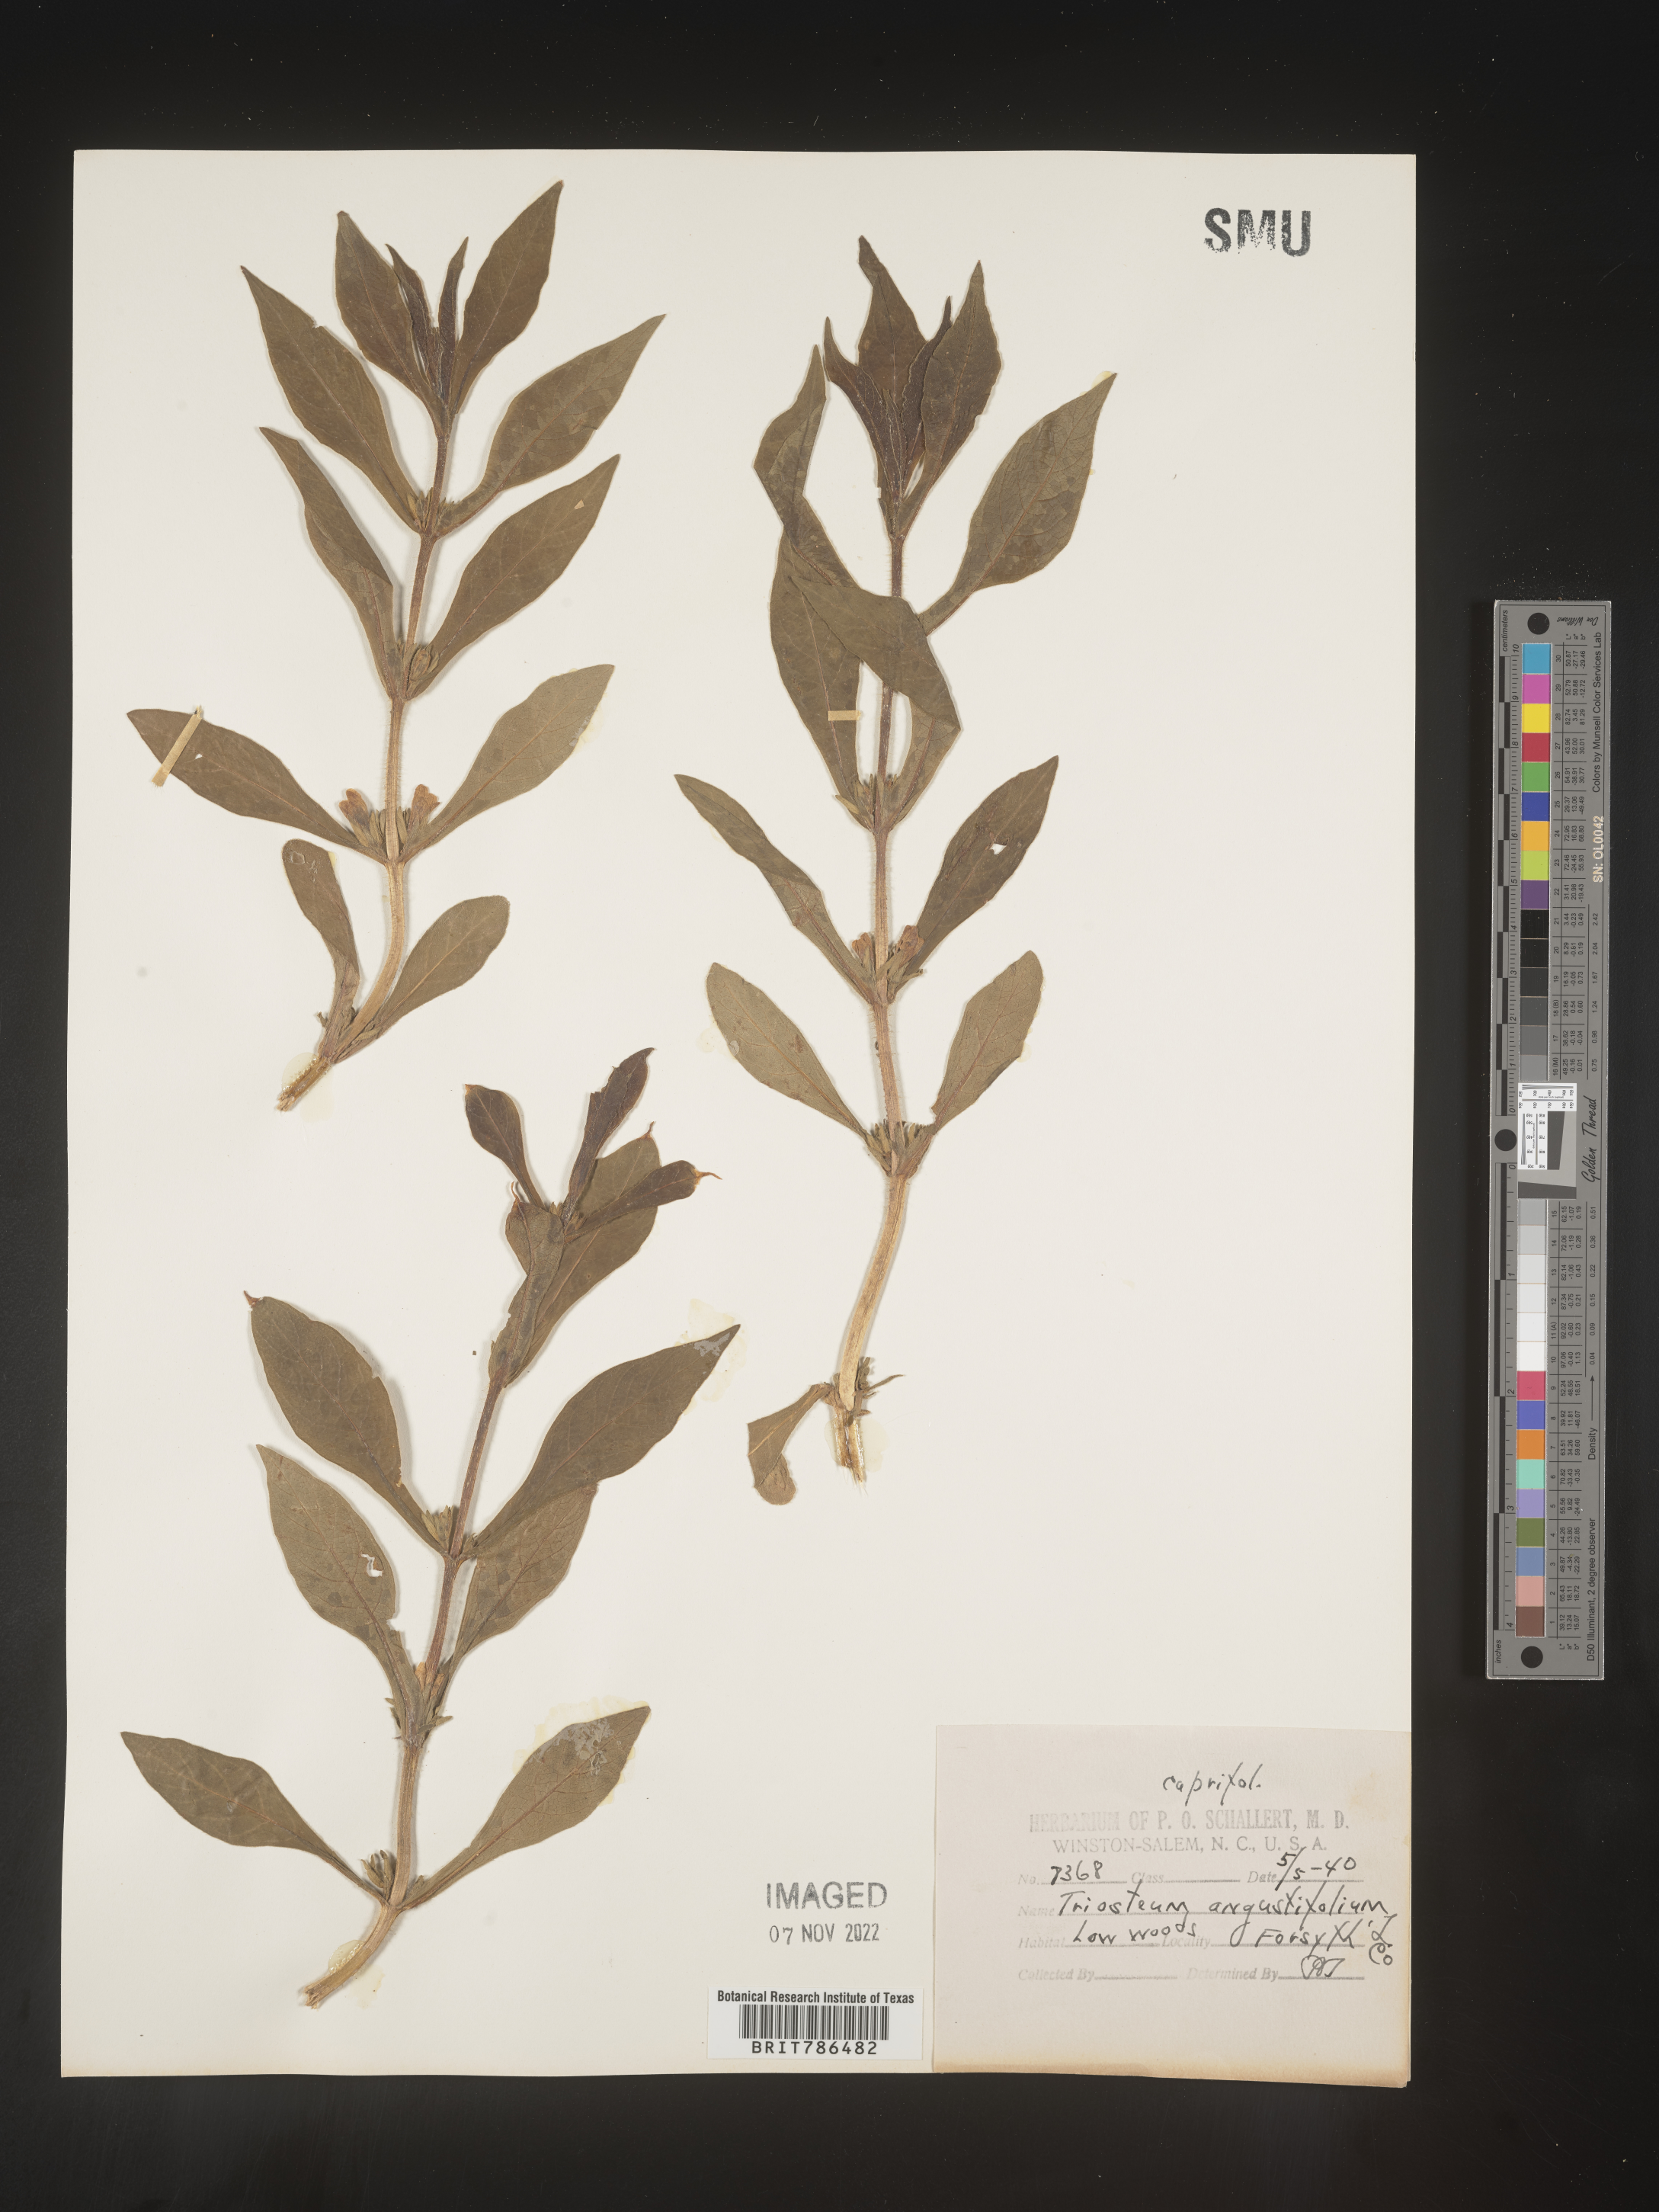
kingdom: Plantae
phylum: Tracheophyta
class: Magnoliopsida
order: Dipsacales
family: Caprifoliaceae
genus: Triosteum
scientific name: Triosteum angustifolium
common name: Narrow-leaved horse-gentian
